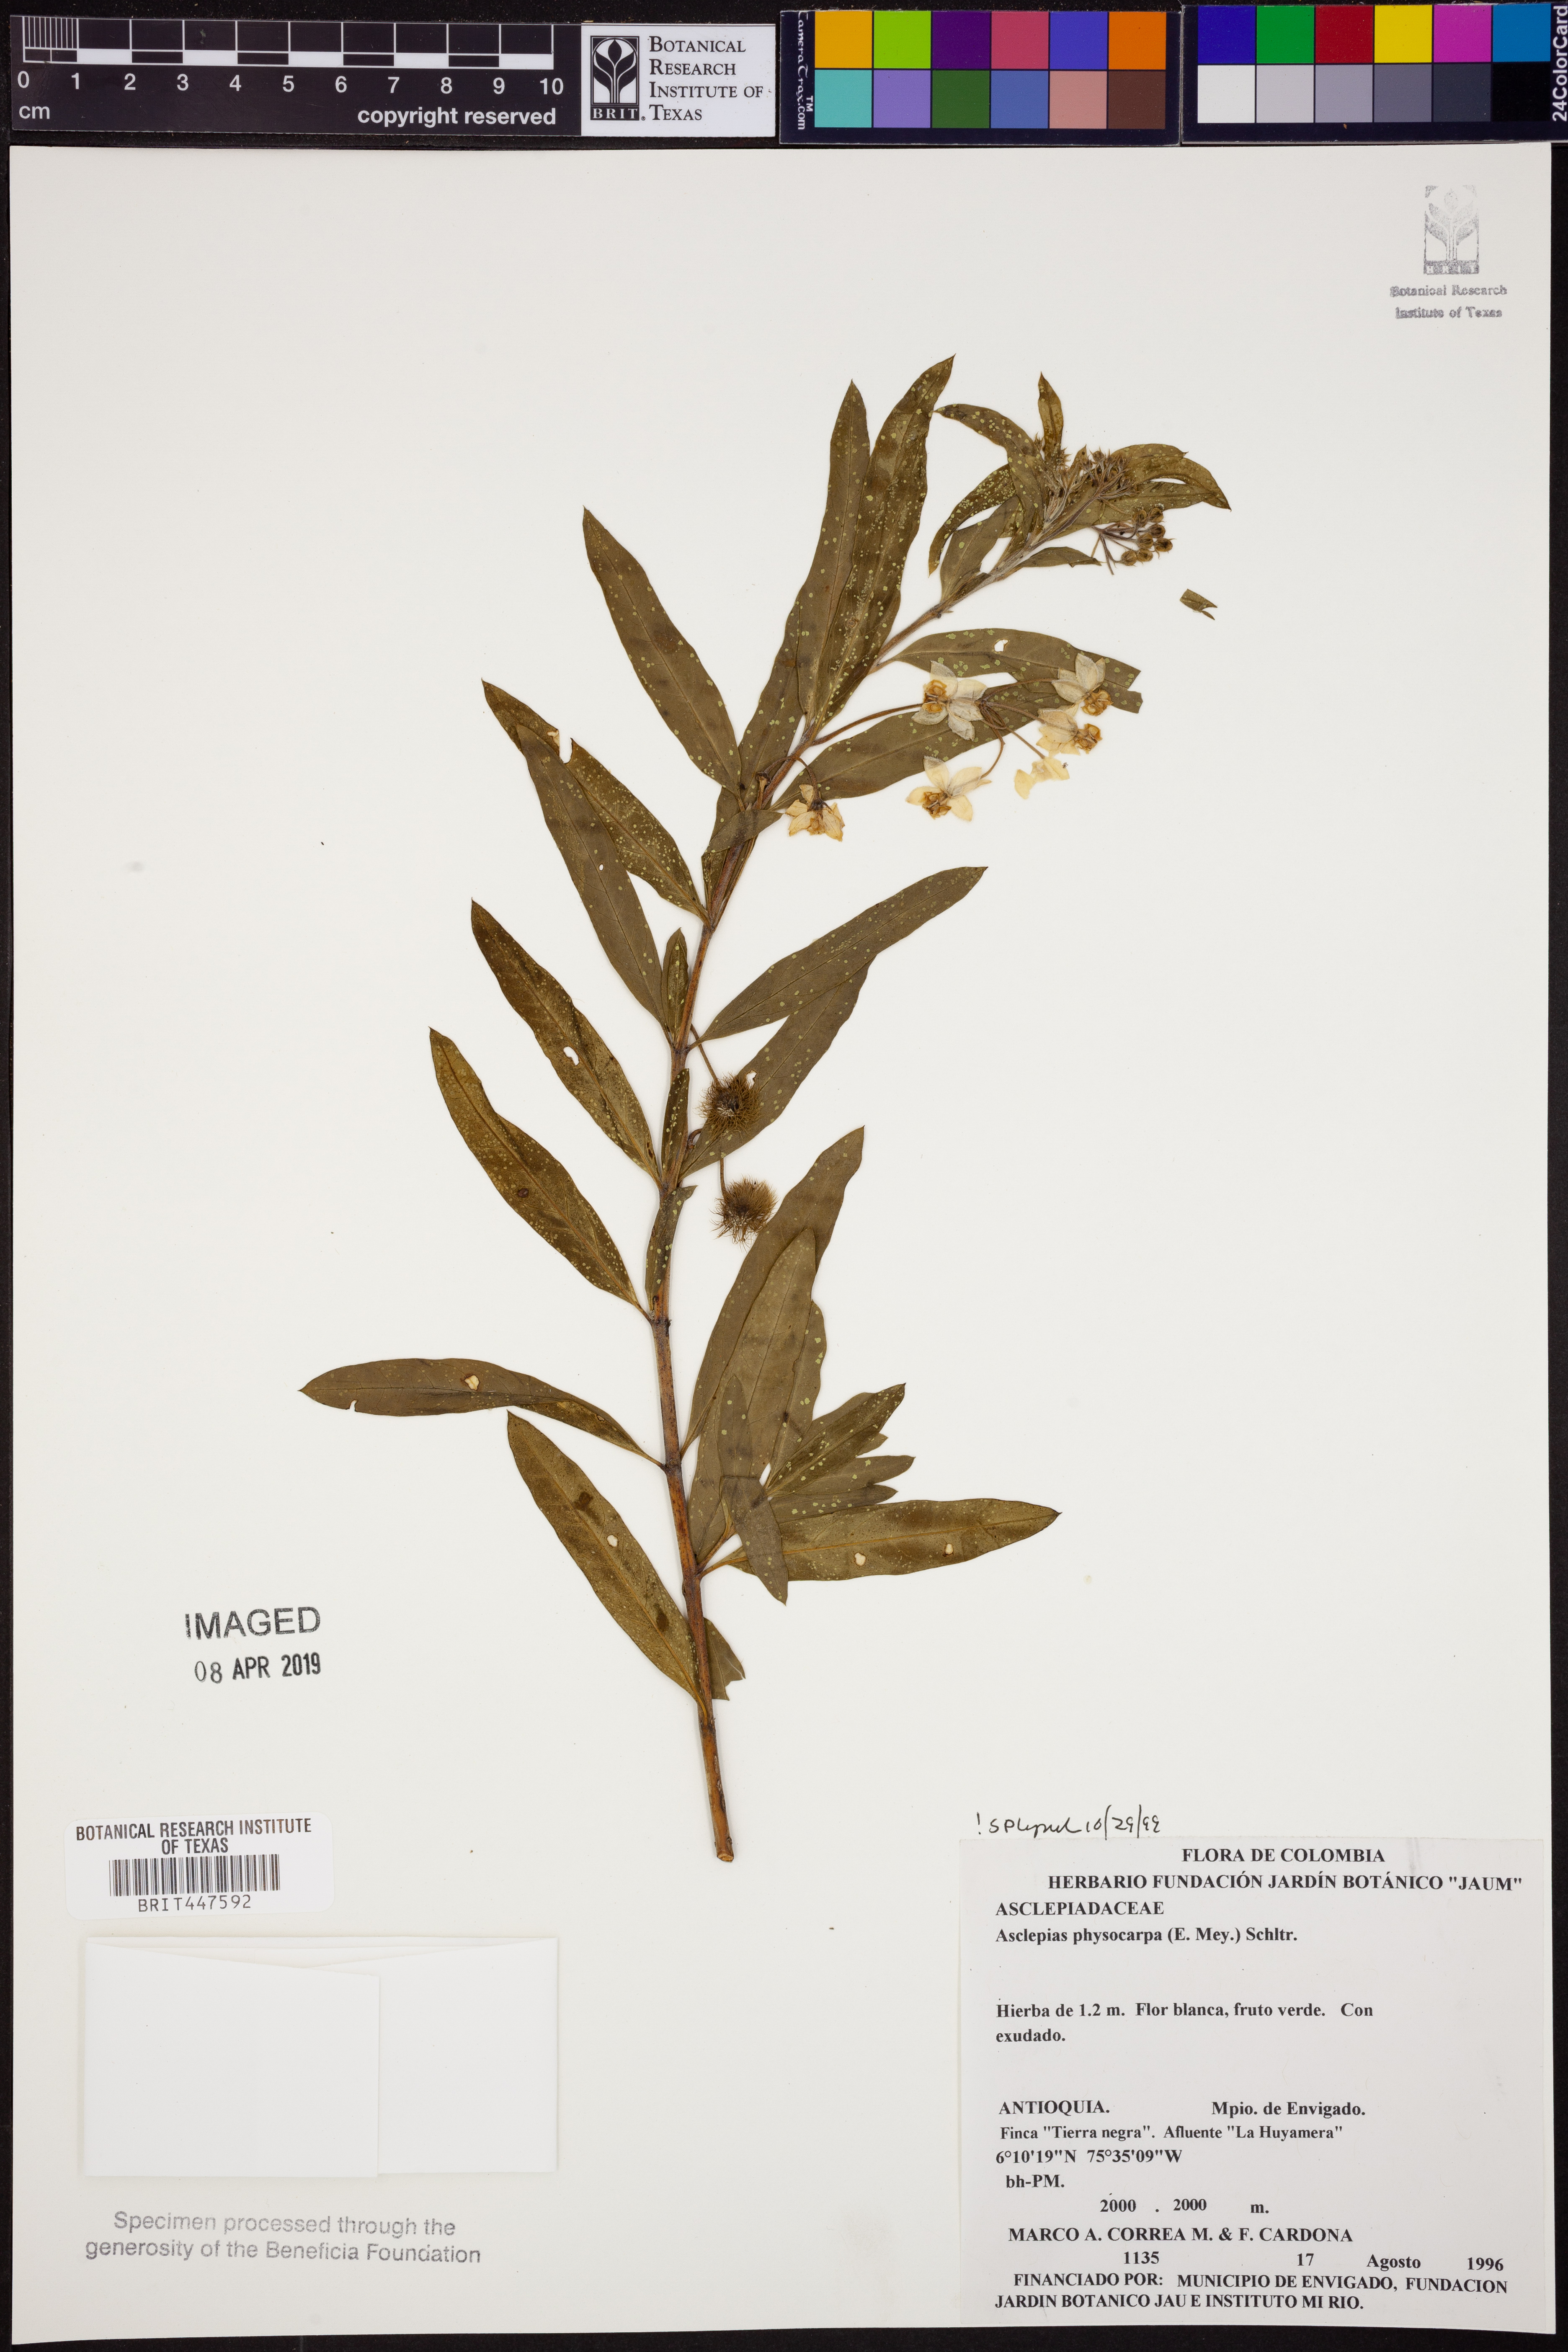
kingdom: Plantae
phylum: Tracheophyta
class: Magnoliopsida
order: Gentianales
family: Apocynaceae
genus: Gomphocarpus
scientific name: Gomphocarpus physocarpus
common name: Balloon cotton bush
